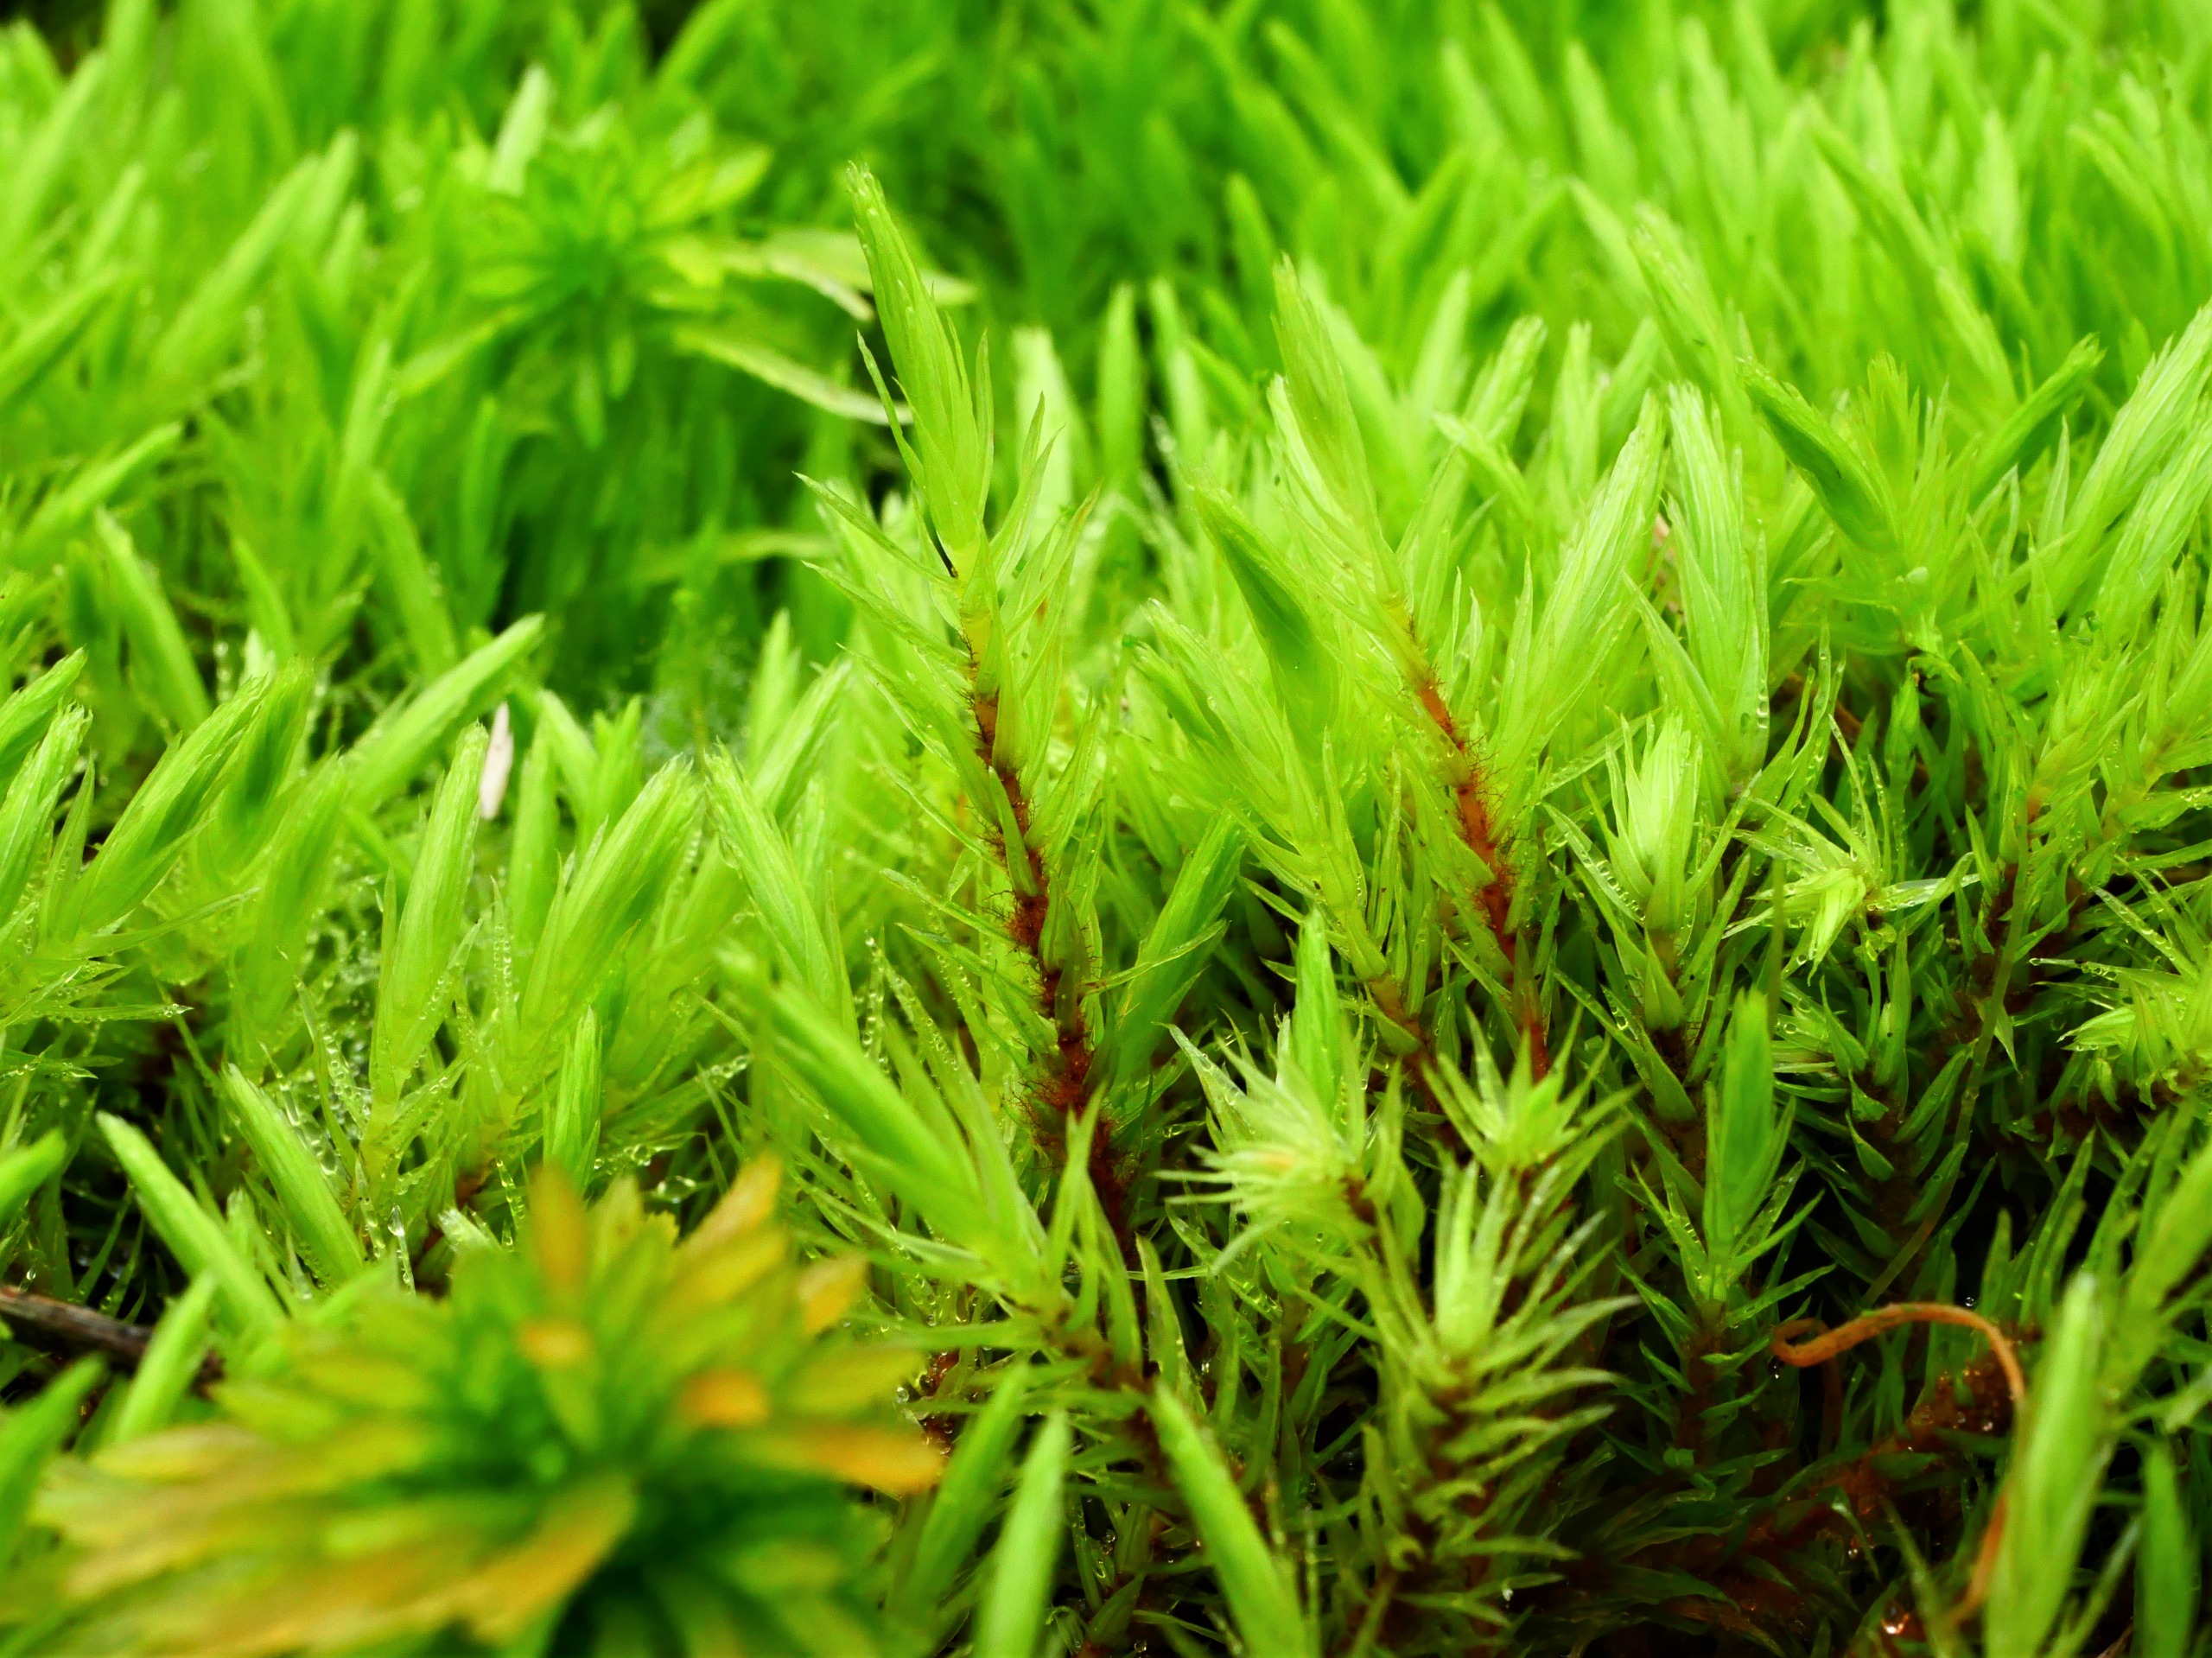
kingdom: Plantae
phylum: Bryophyta
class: Bryopsida
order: Aulacomniales
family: Aulacomniaceae
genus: Aulacomnium
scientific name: Aulacomnium palustre
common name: Almindelig filtmos
